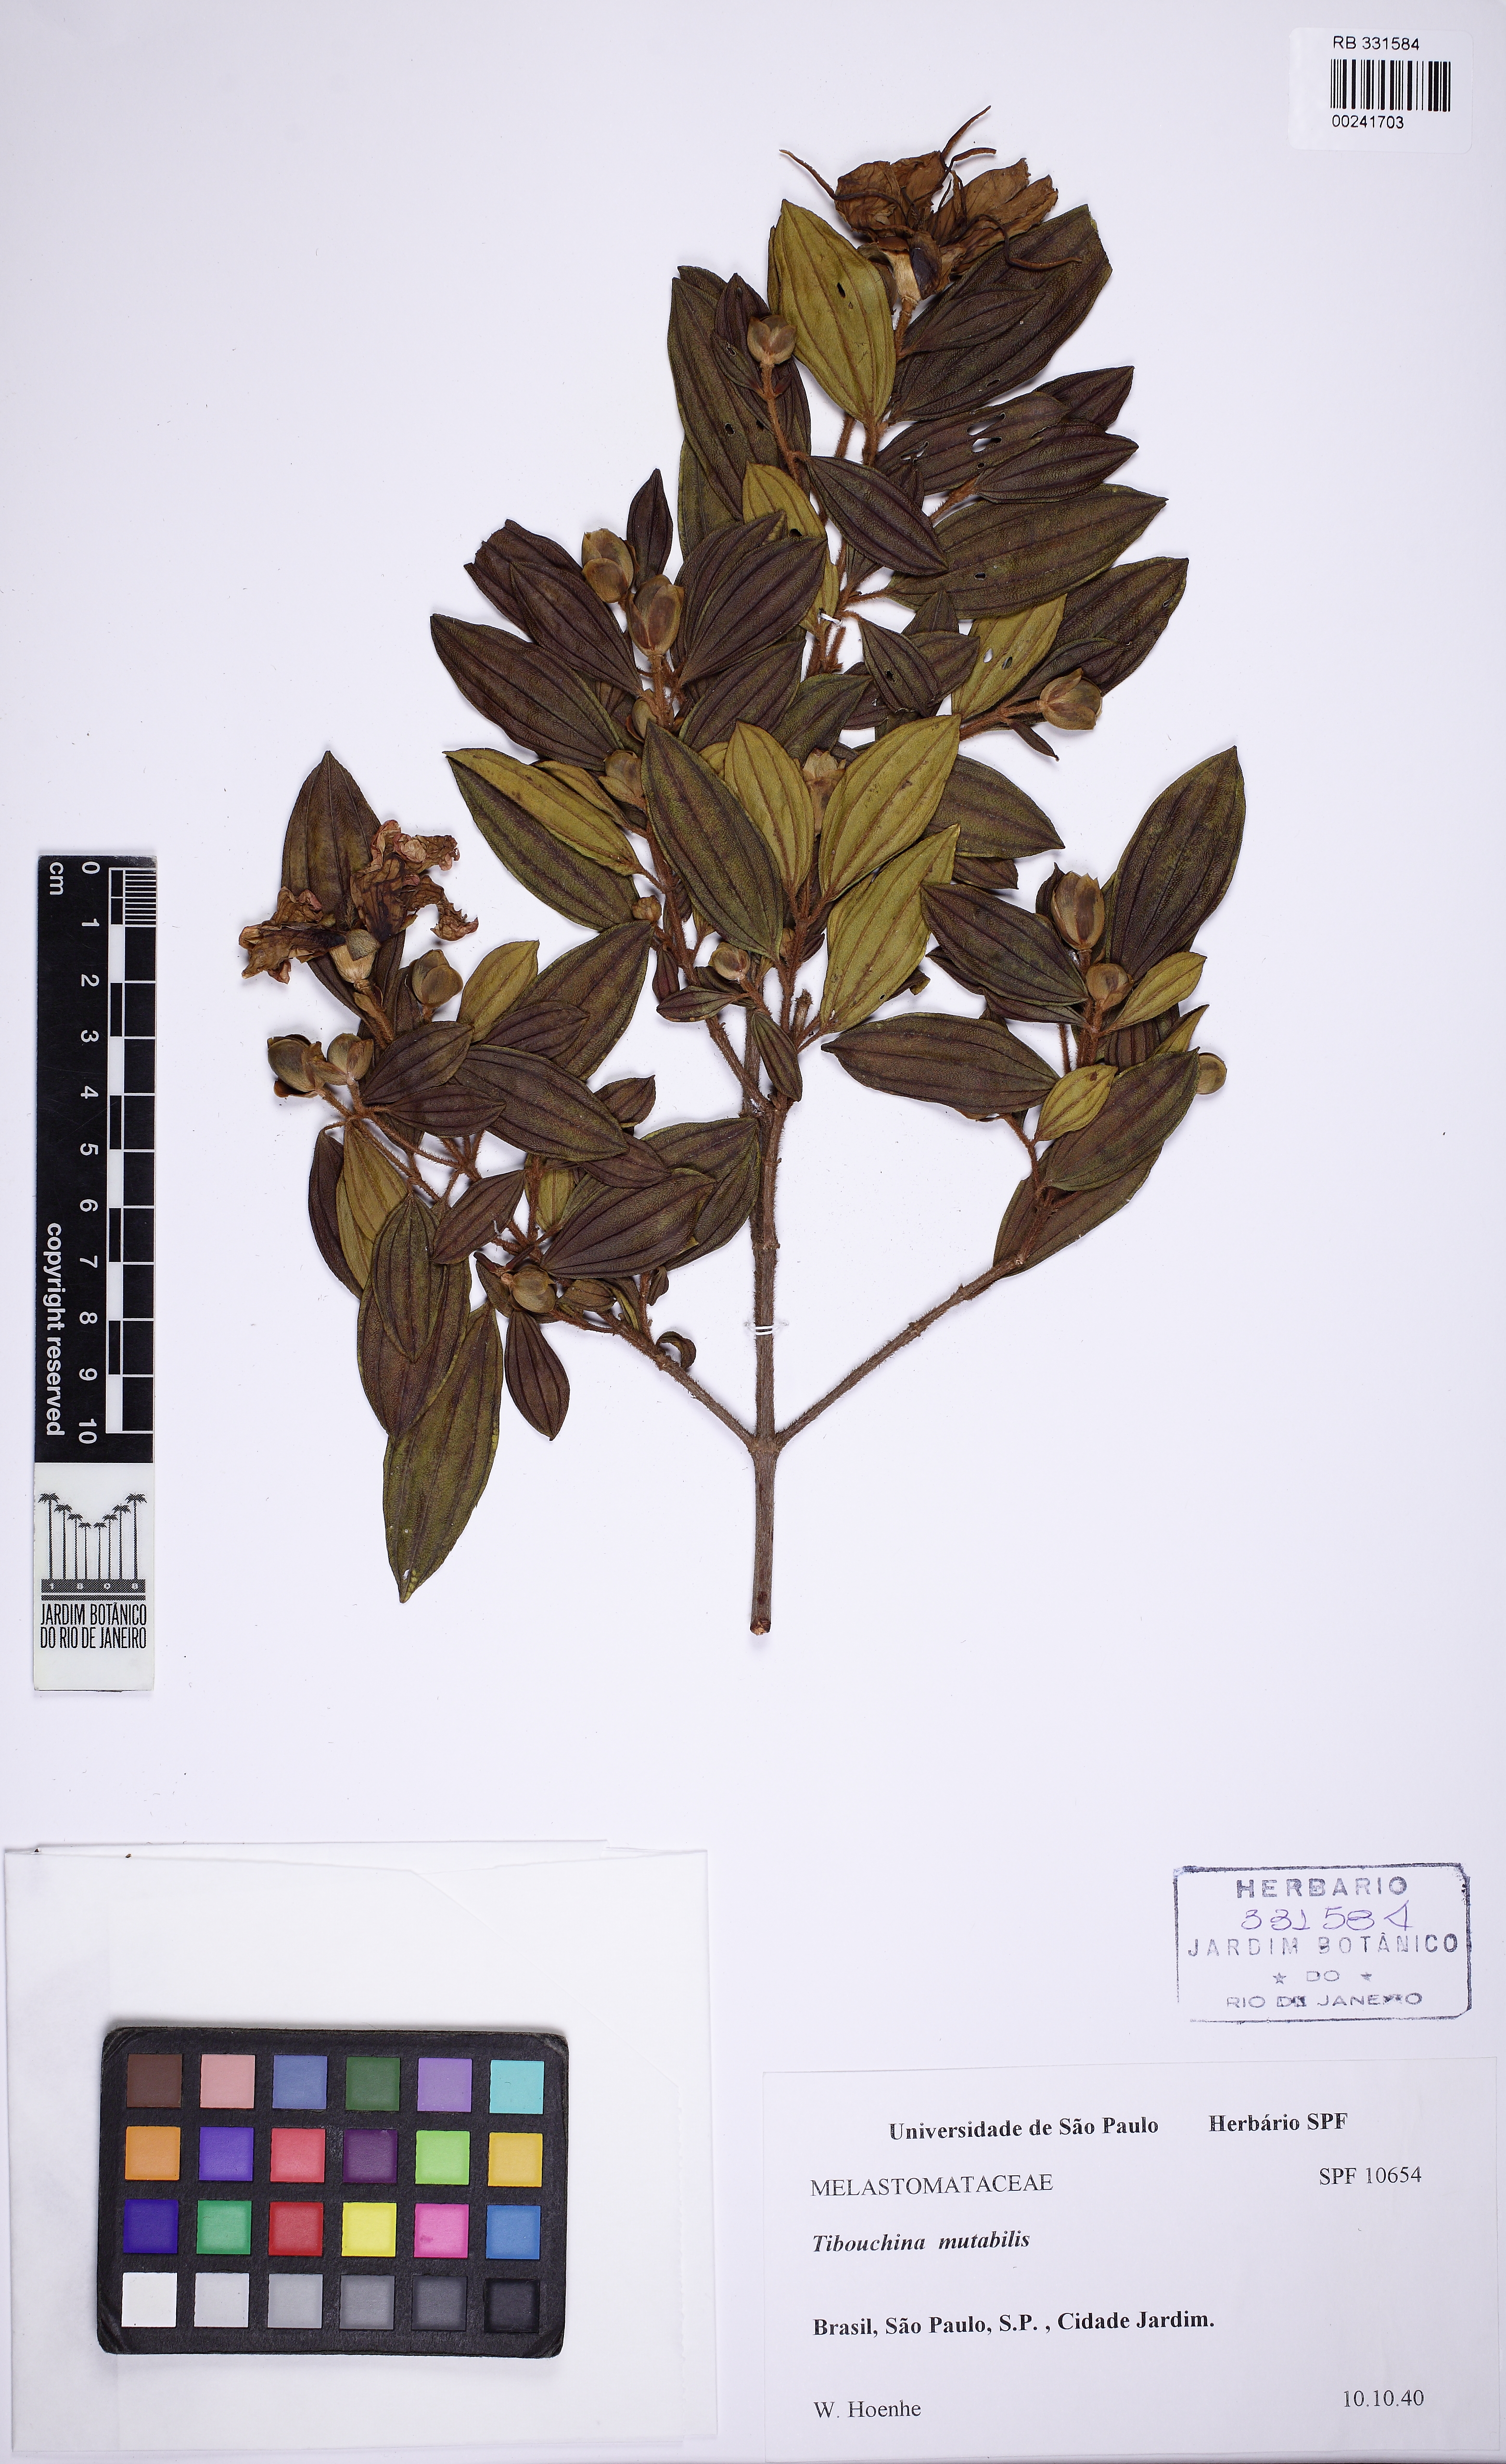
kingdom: Plantae
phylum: Tracheophyta
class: Magnoliopsida
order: Myrtales
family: Melastomataceae
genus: Pleroma
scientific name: Pleroma mutabile
